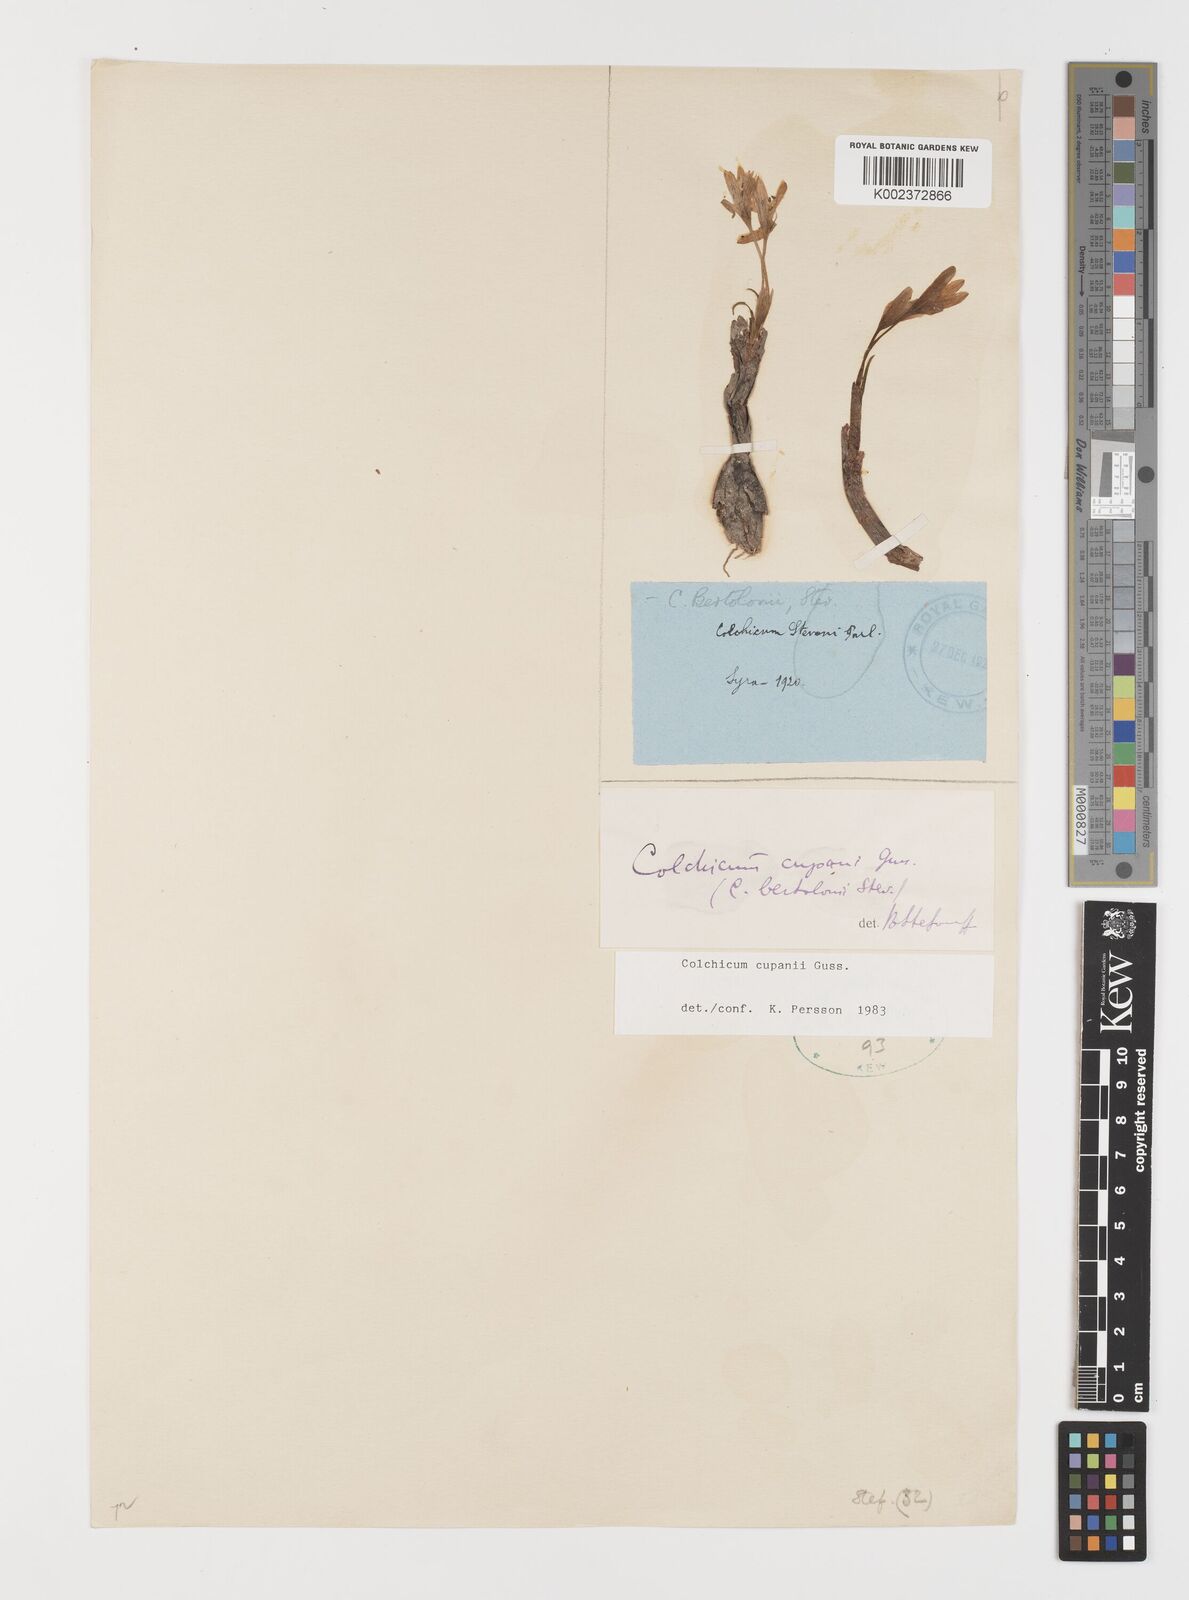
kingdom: Plantae
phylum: Tracheophyta
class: Liliopsida
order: Liliales
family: Colchicaceae
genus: Colchicum
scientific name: Colchicum cupanii
